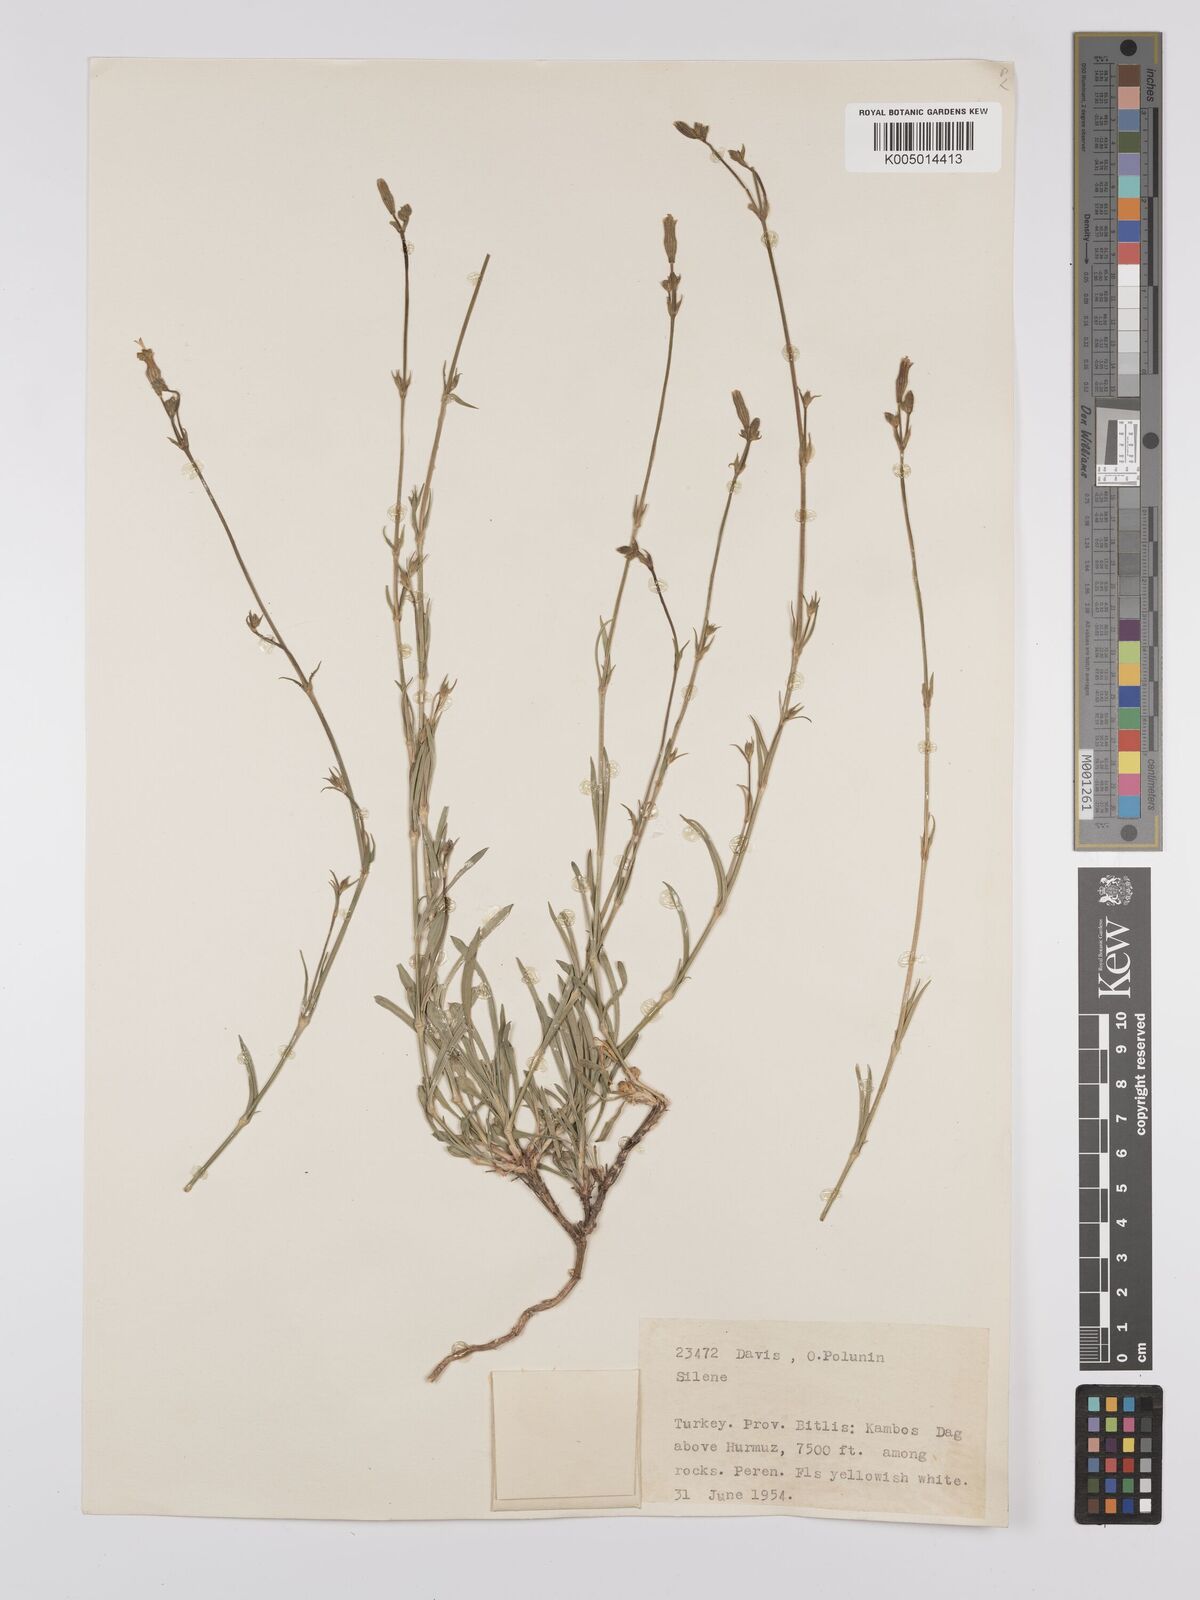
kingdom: Plantae
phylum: Tracheophyta
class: Magnoliopsida
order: Caryophyllales
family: Caryophyllaceae
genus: Silene
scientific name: Silene
